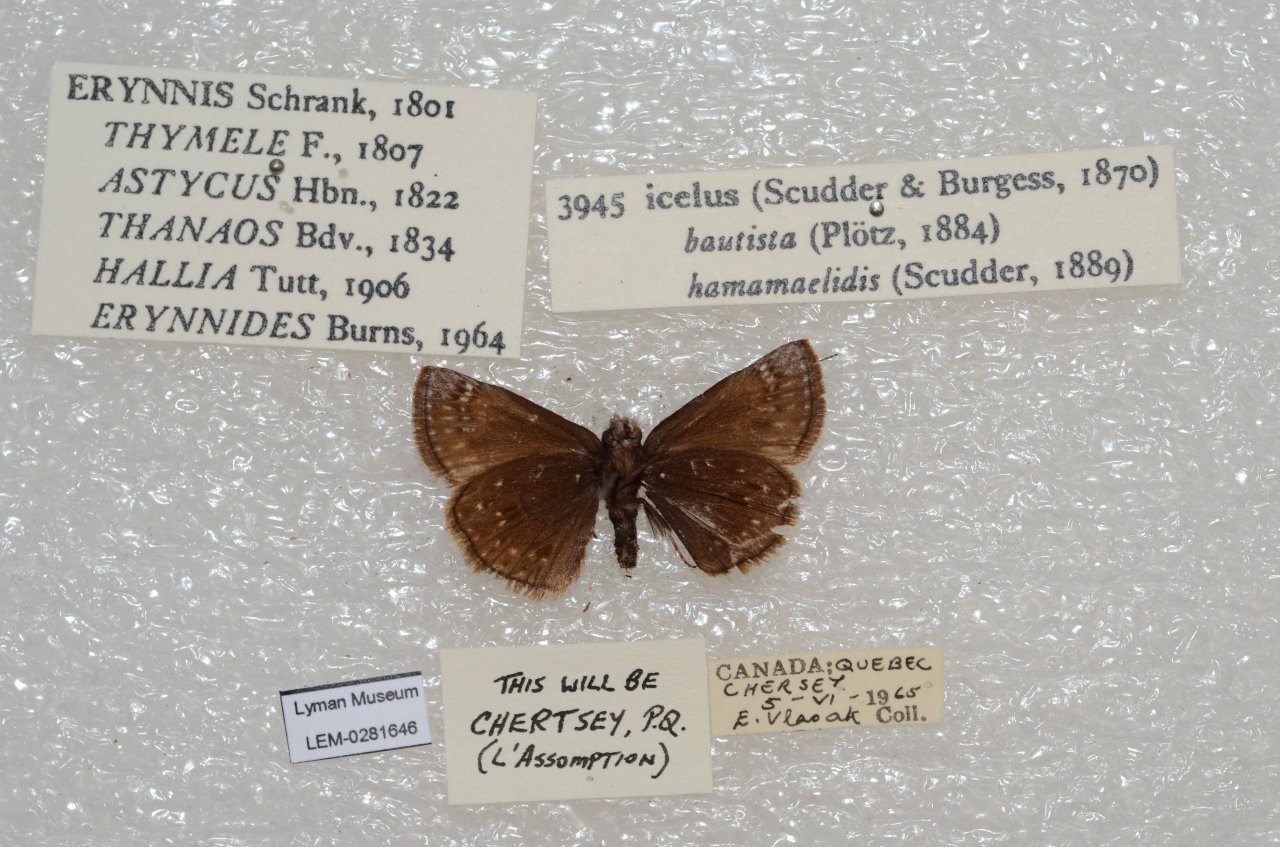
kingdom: Animalia
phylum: Arthropoda
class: Insecta
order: Lepidoptera
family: Hesperiidae
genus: Erynnis
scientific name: Erynnis icelus
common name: Dreamy Duskywing
